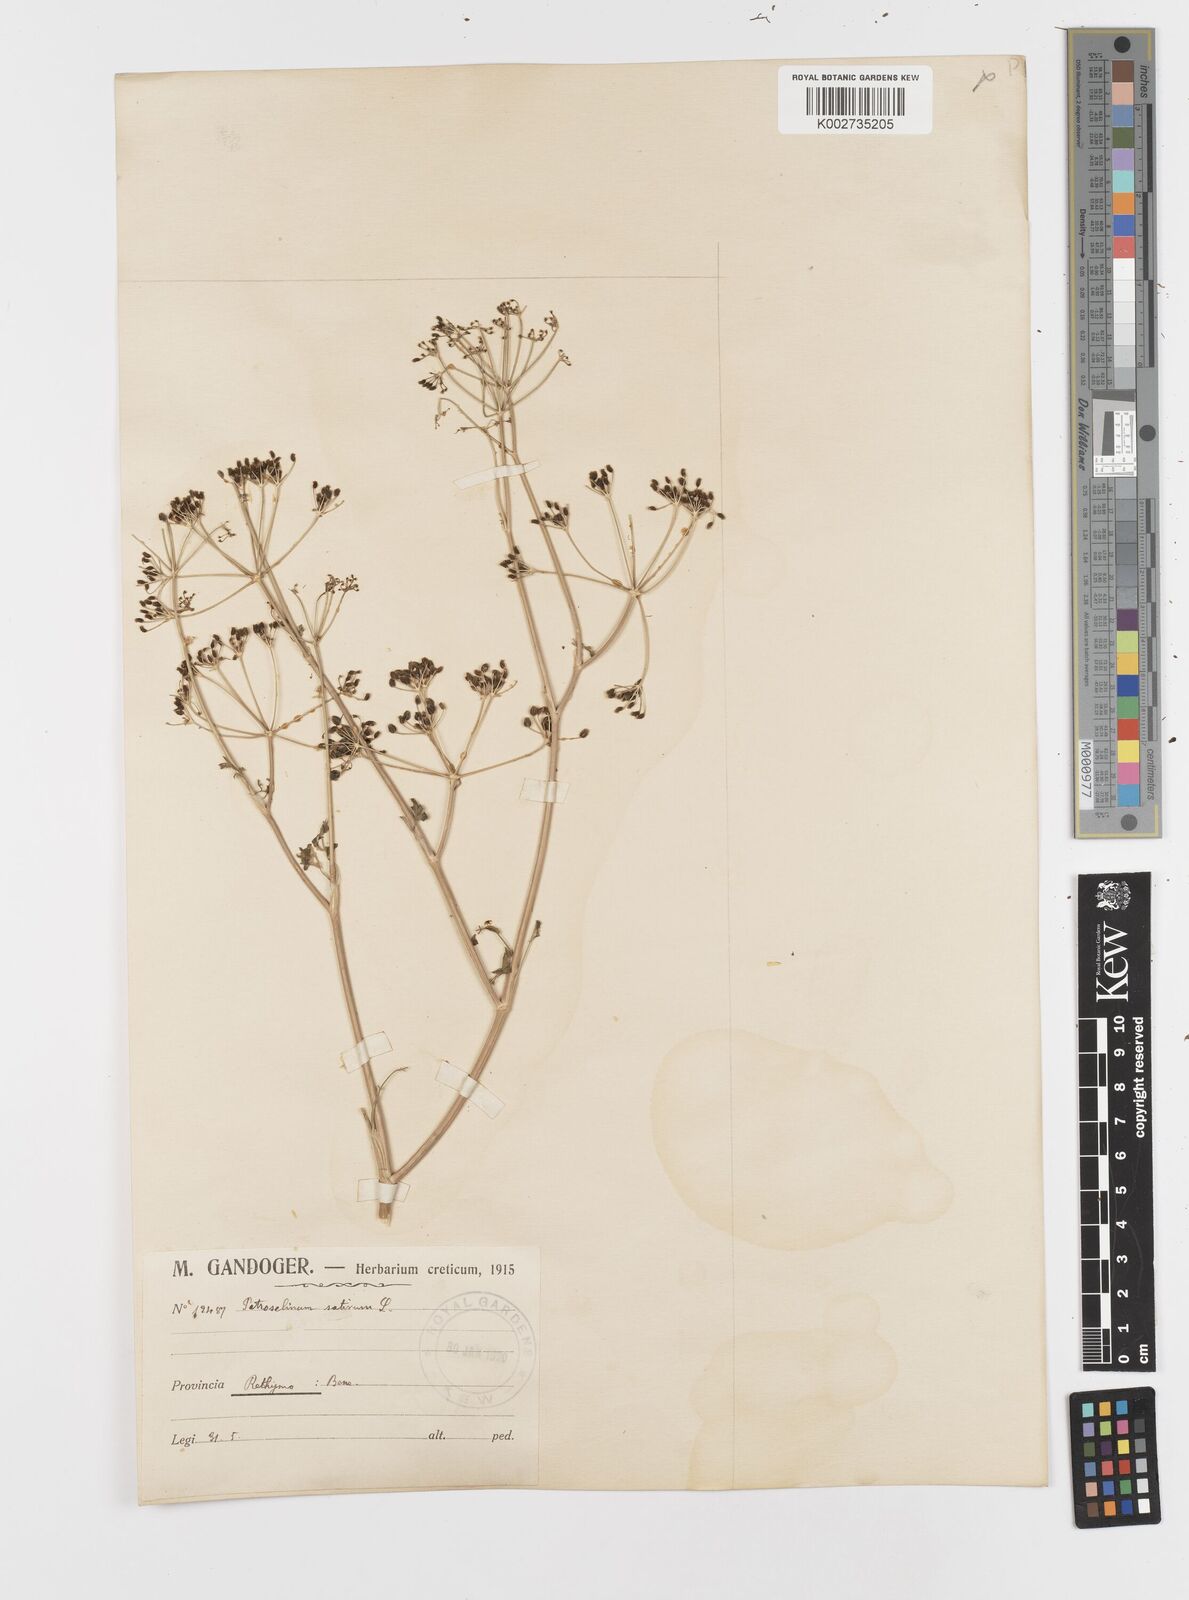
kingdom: Plantae
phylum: Tracheophyta
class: Magnoliopsida
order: Apiales
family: Apiaceae
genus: Petroselinum
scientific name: Petroselinum crispum
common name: Parsley
